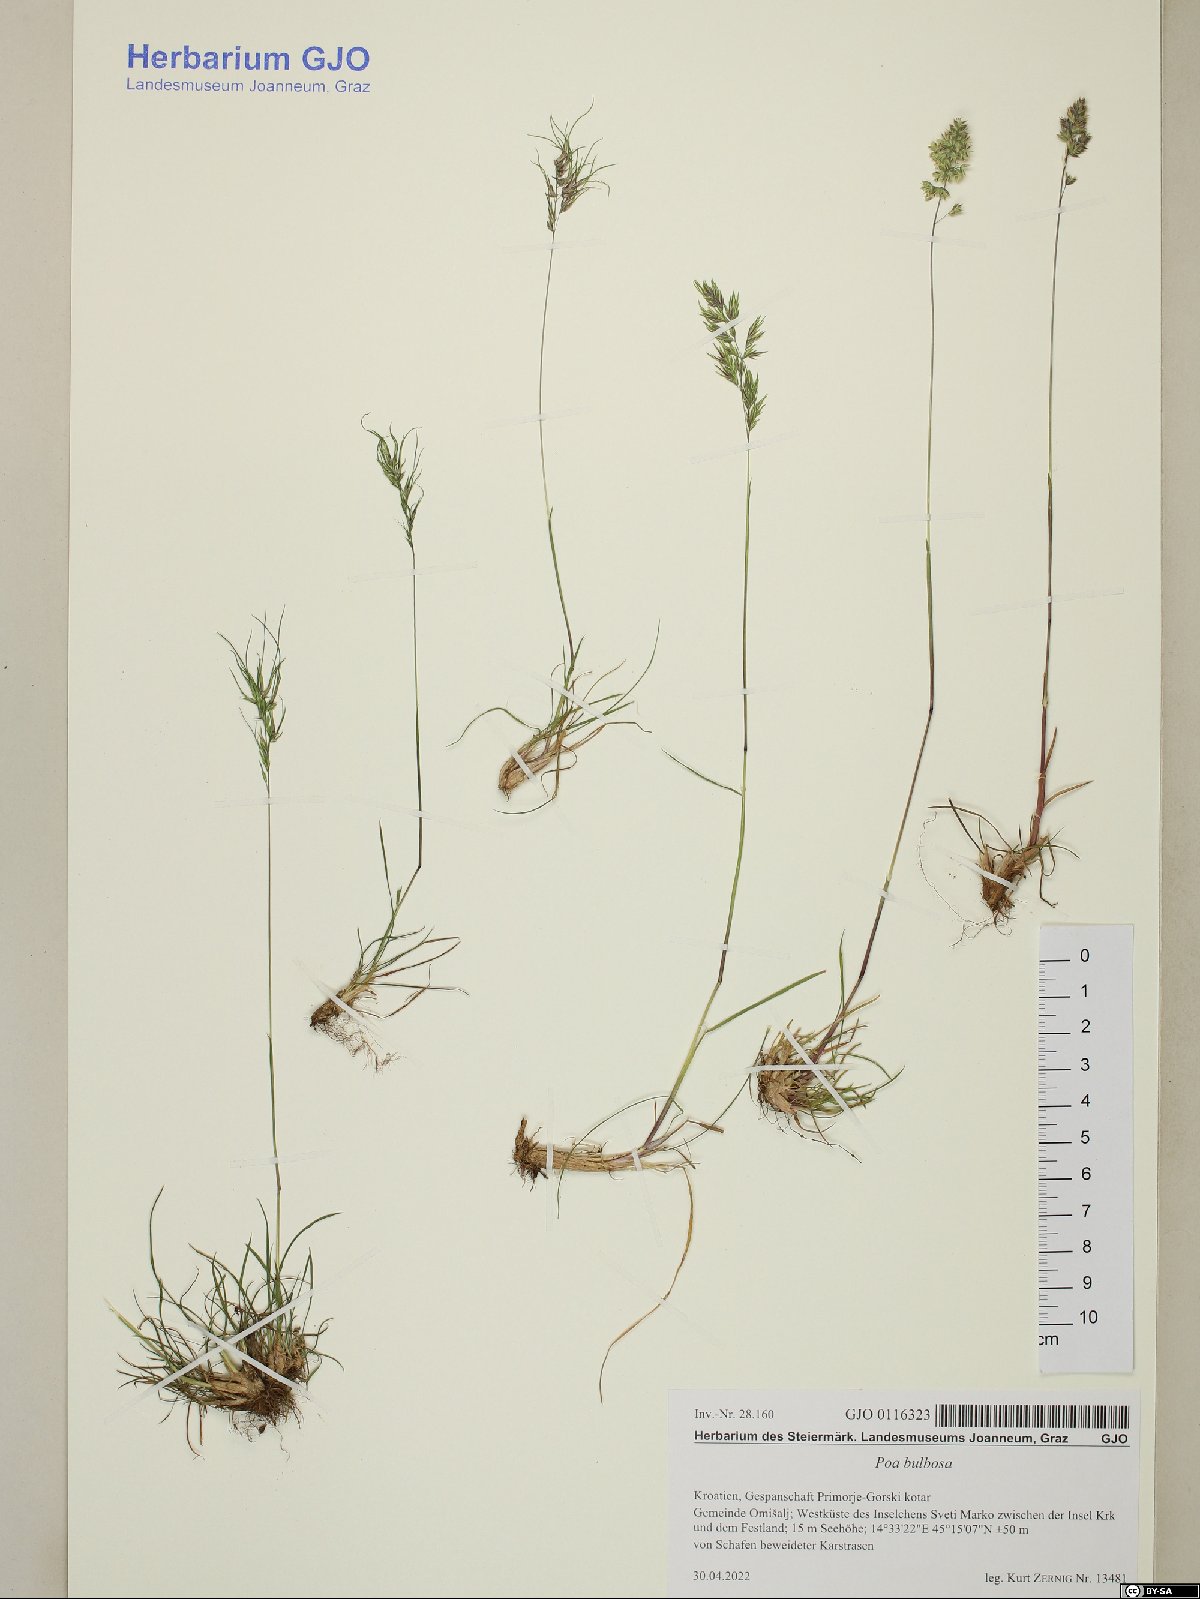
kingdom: Plantae
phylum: Tracheophyta
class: Liliopsida
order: Poales
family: Poaceae
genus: Poa
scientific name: Poa bulbosa
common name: Bulbous bluegrass
